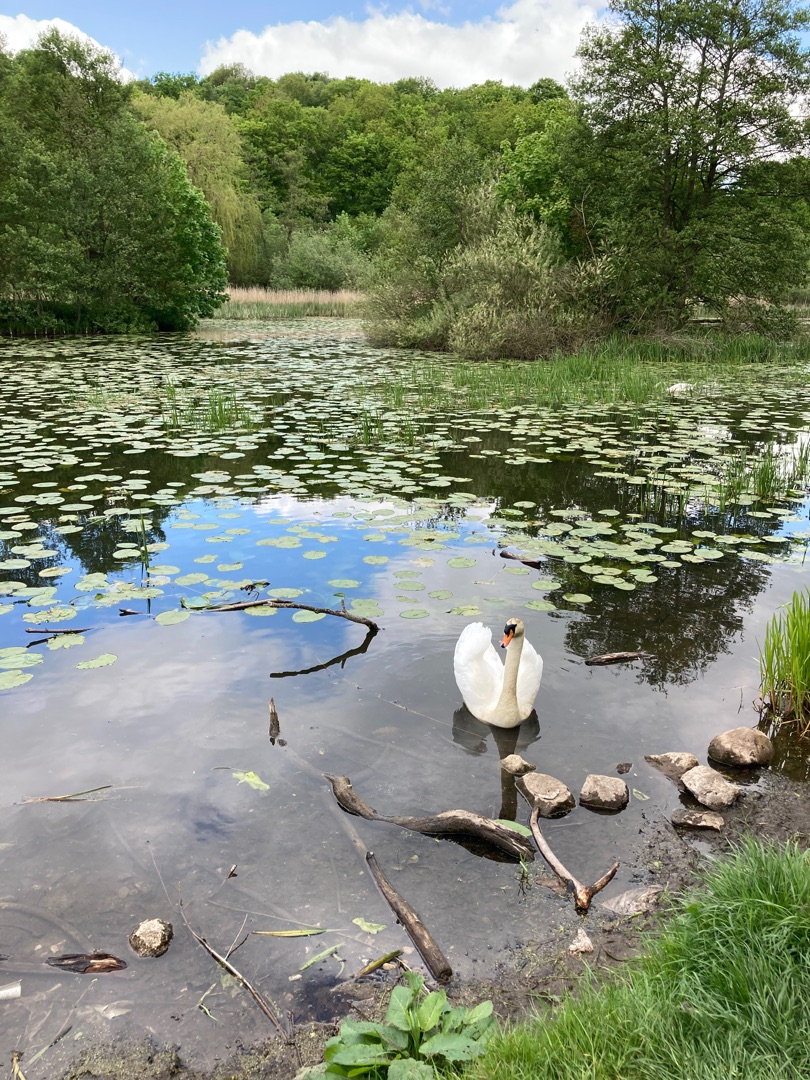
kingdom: Animalia
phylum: Chordata
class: Aves
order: Anseriformes
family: Anatidae
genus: Cygnus
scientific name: Cygnus olor
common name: Knopsvane
